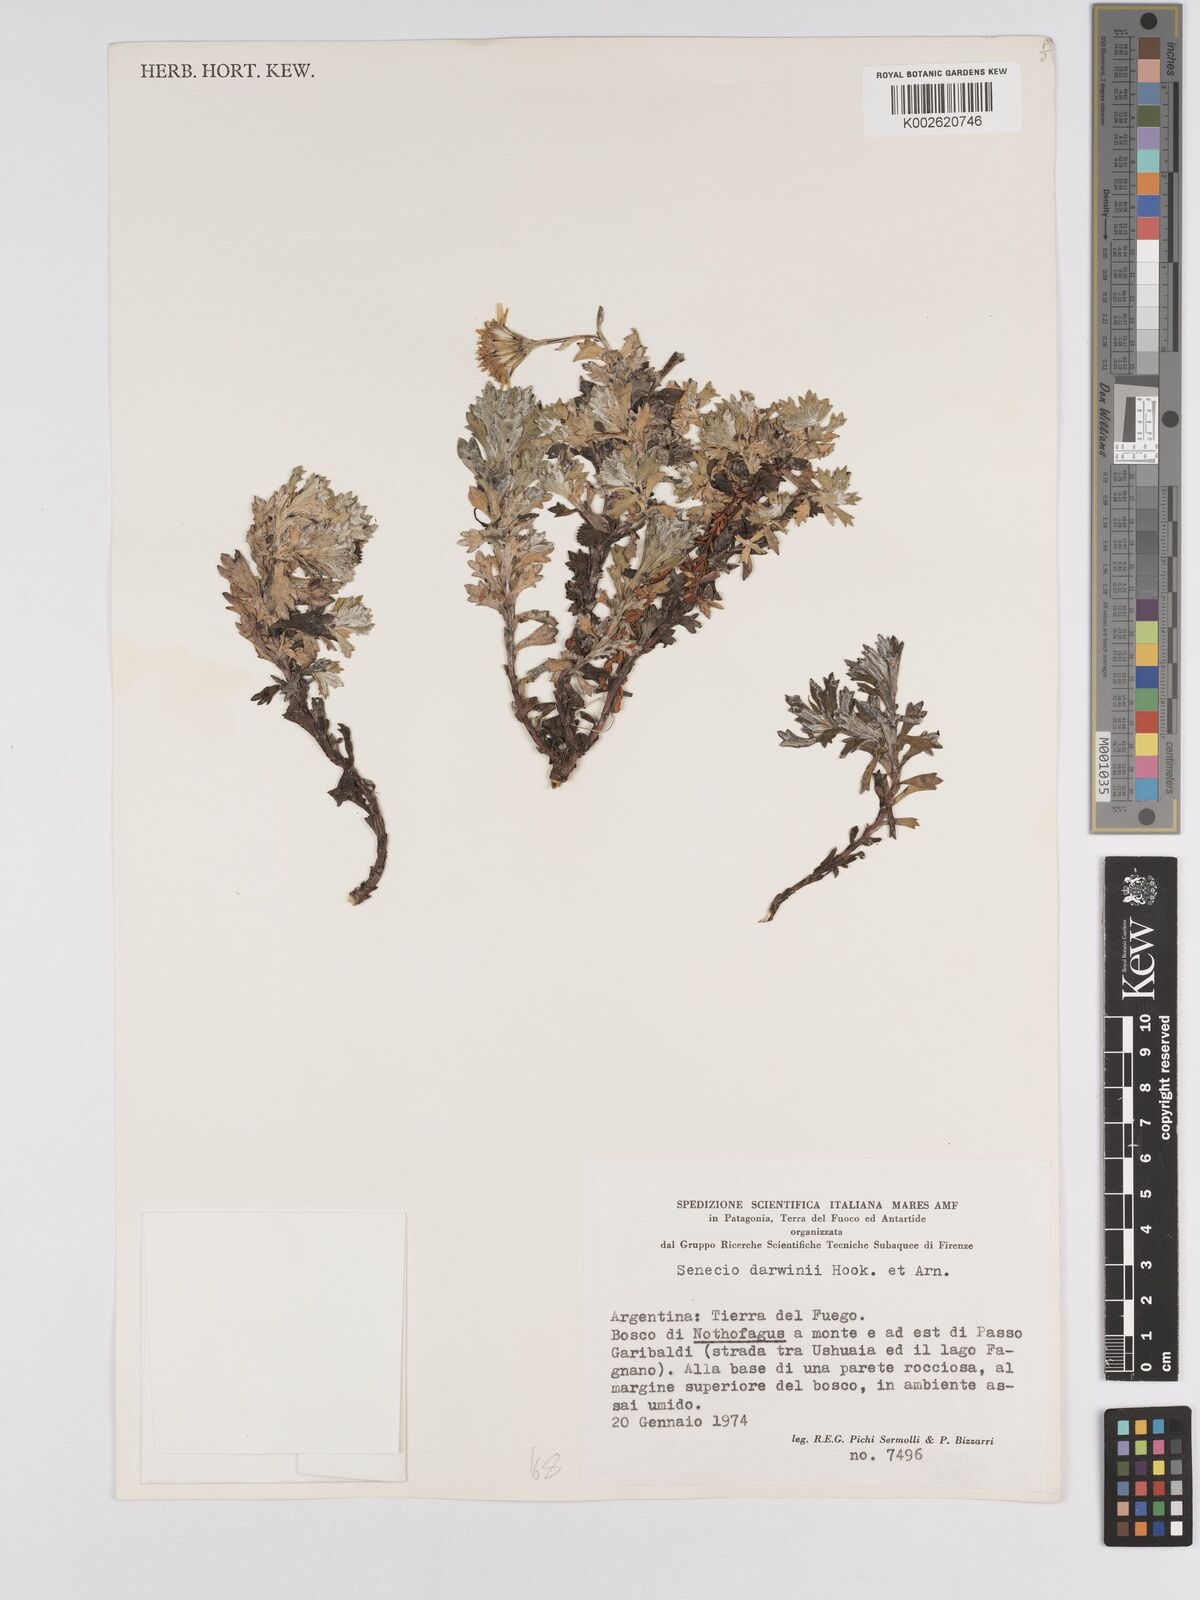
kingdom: Plantae
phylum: Tracheophyta
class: Magnoliopsida
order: Asterales
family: Asteraceae
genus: Senecio
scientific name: Senecio darwinii
